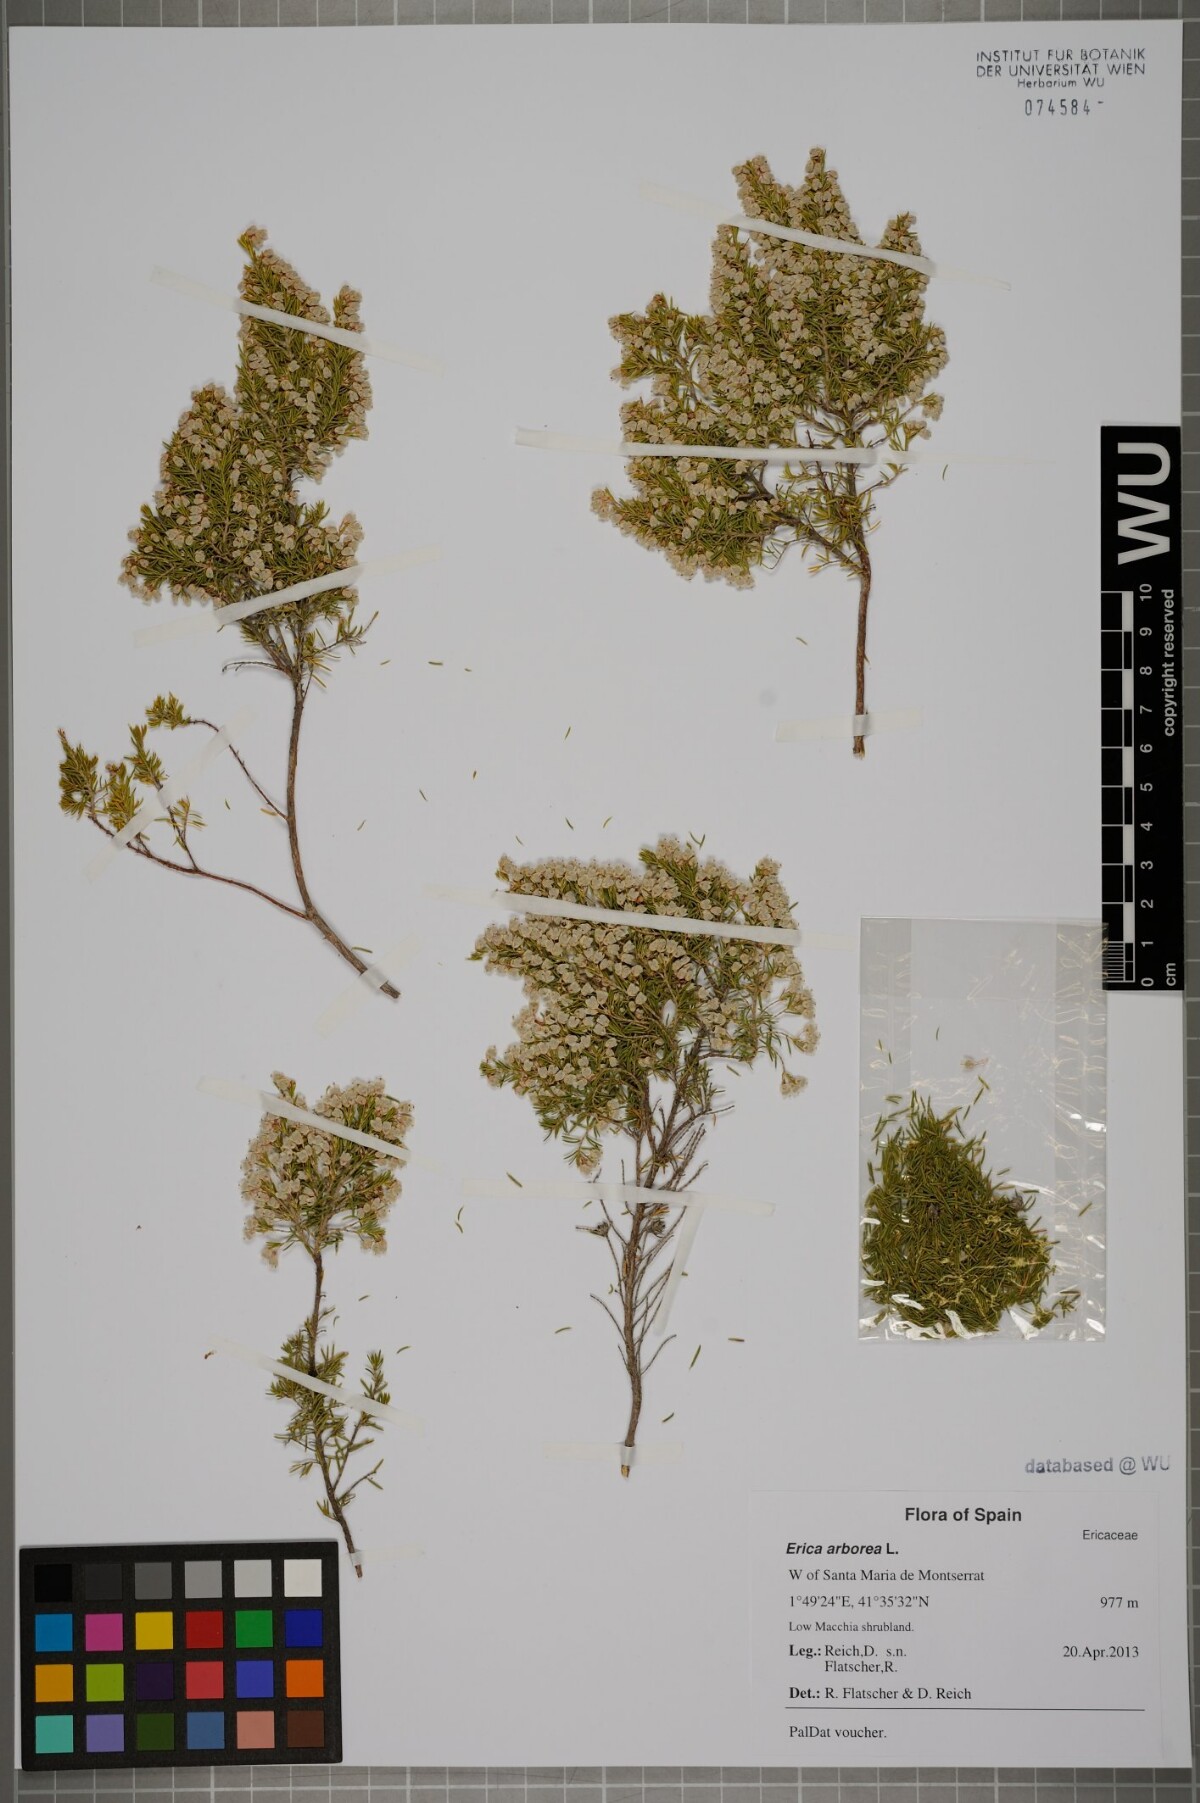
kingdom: Plantae
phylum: Tracheophyta
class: Magnoliopsida
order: Ericales
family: Ericaceae
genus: Erica
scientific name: Erica arborea
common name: Tree heath
